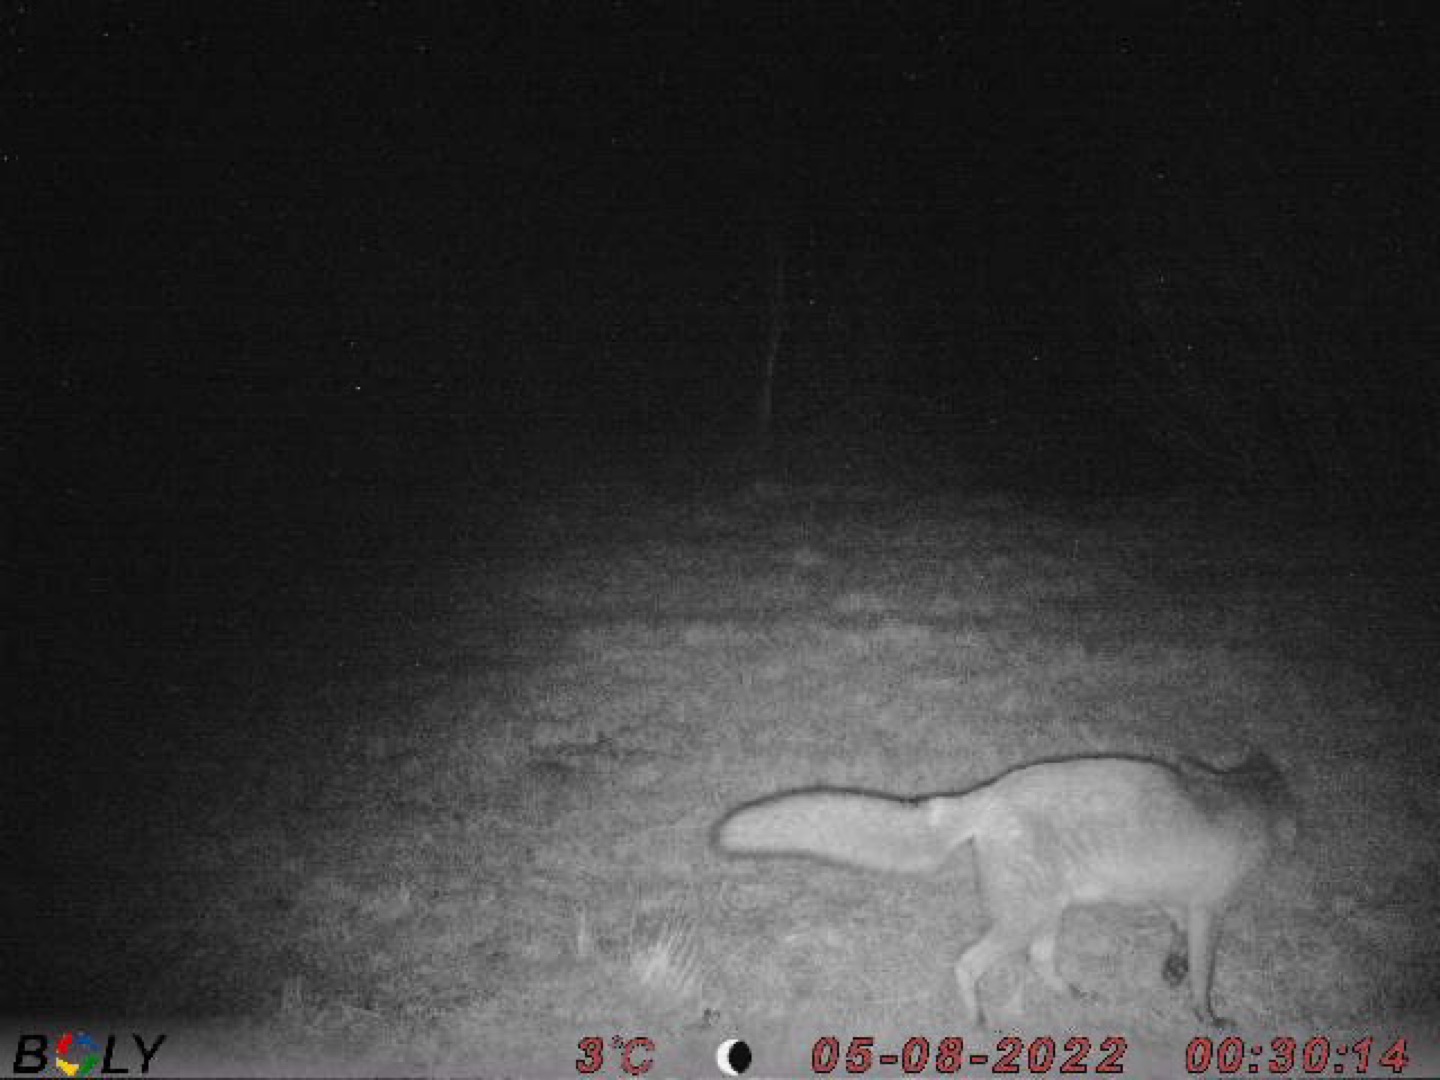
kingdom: Animalia
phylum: Chordata
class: Mammalia
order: Carnivora
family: Canidae
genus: Vulpes
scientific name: Vulpes vulpes
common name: Ræv
